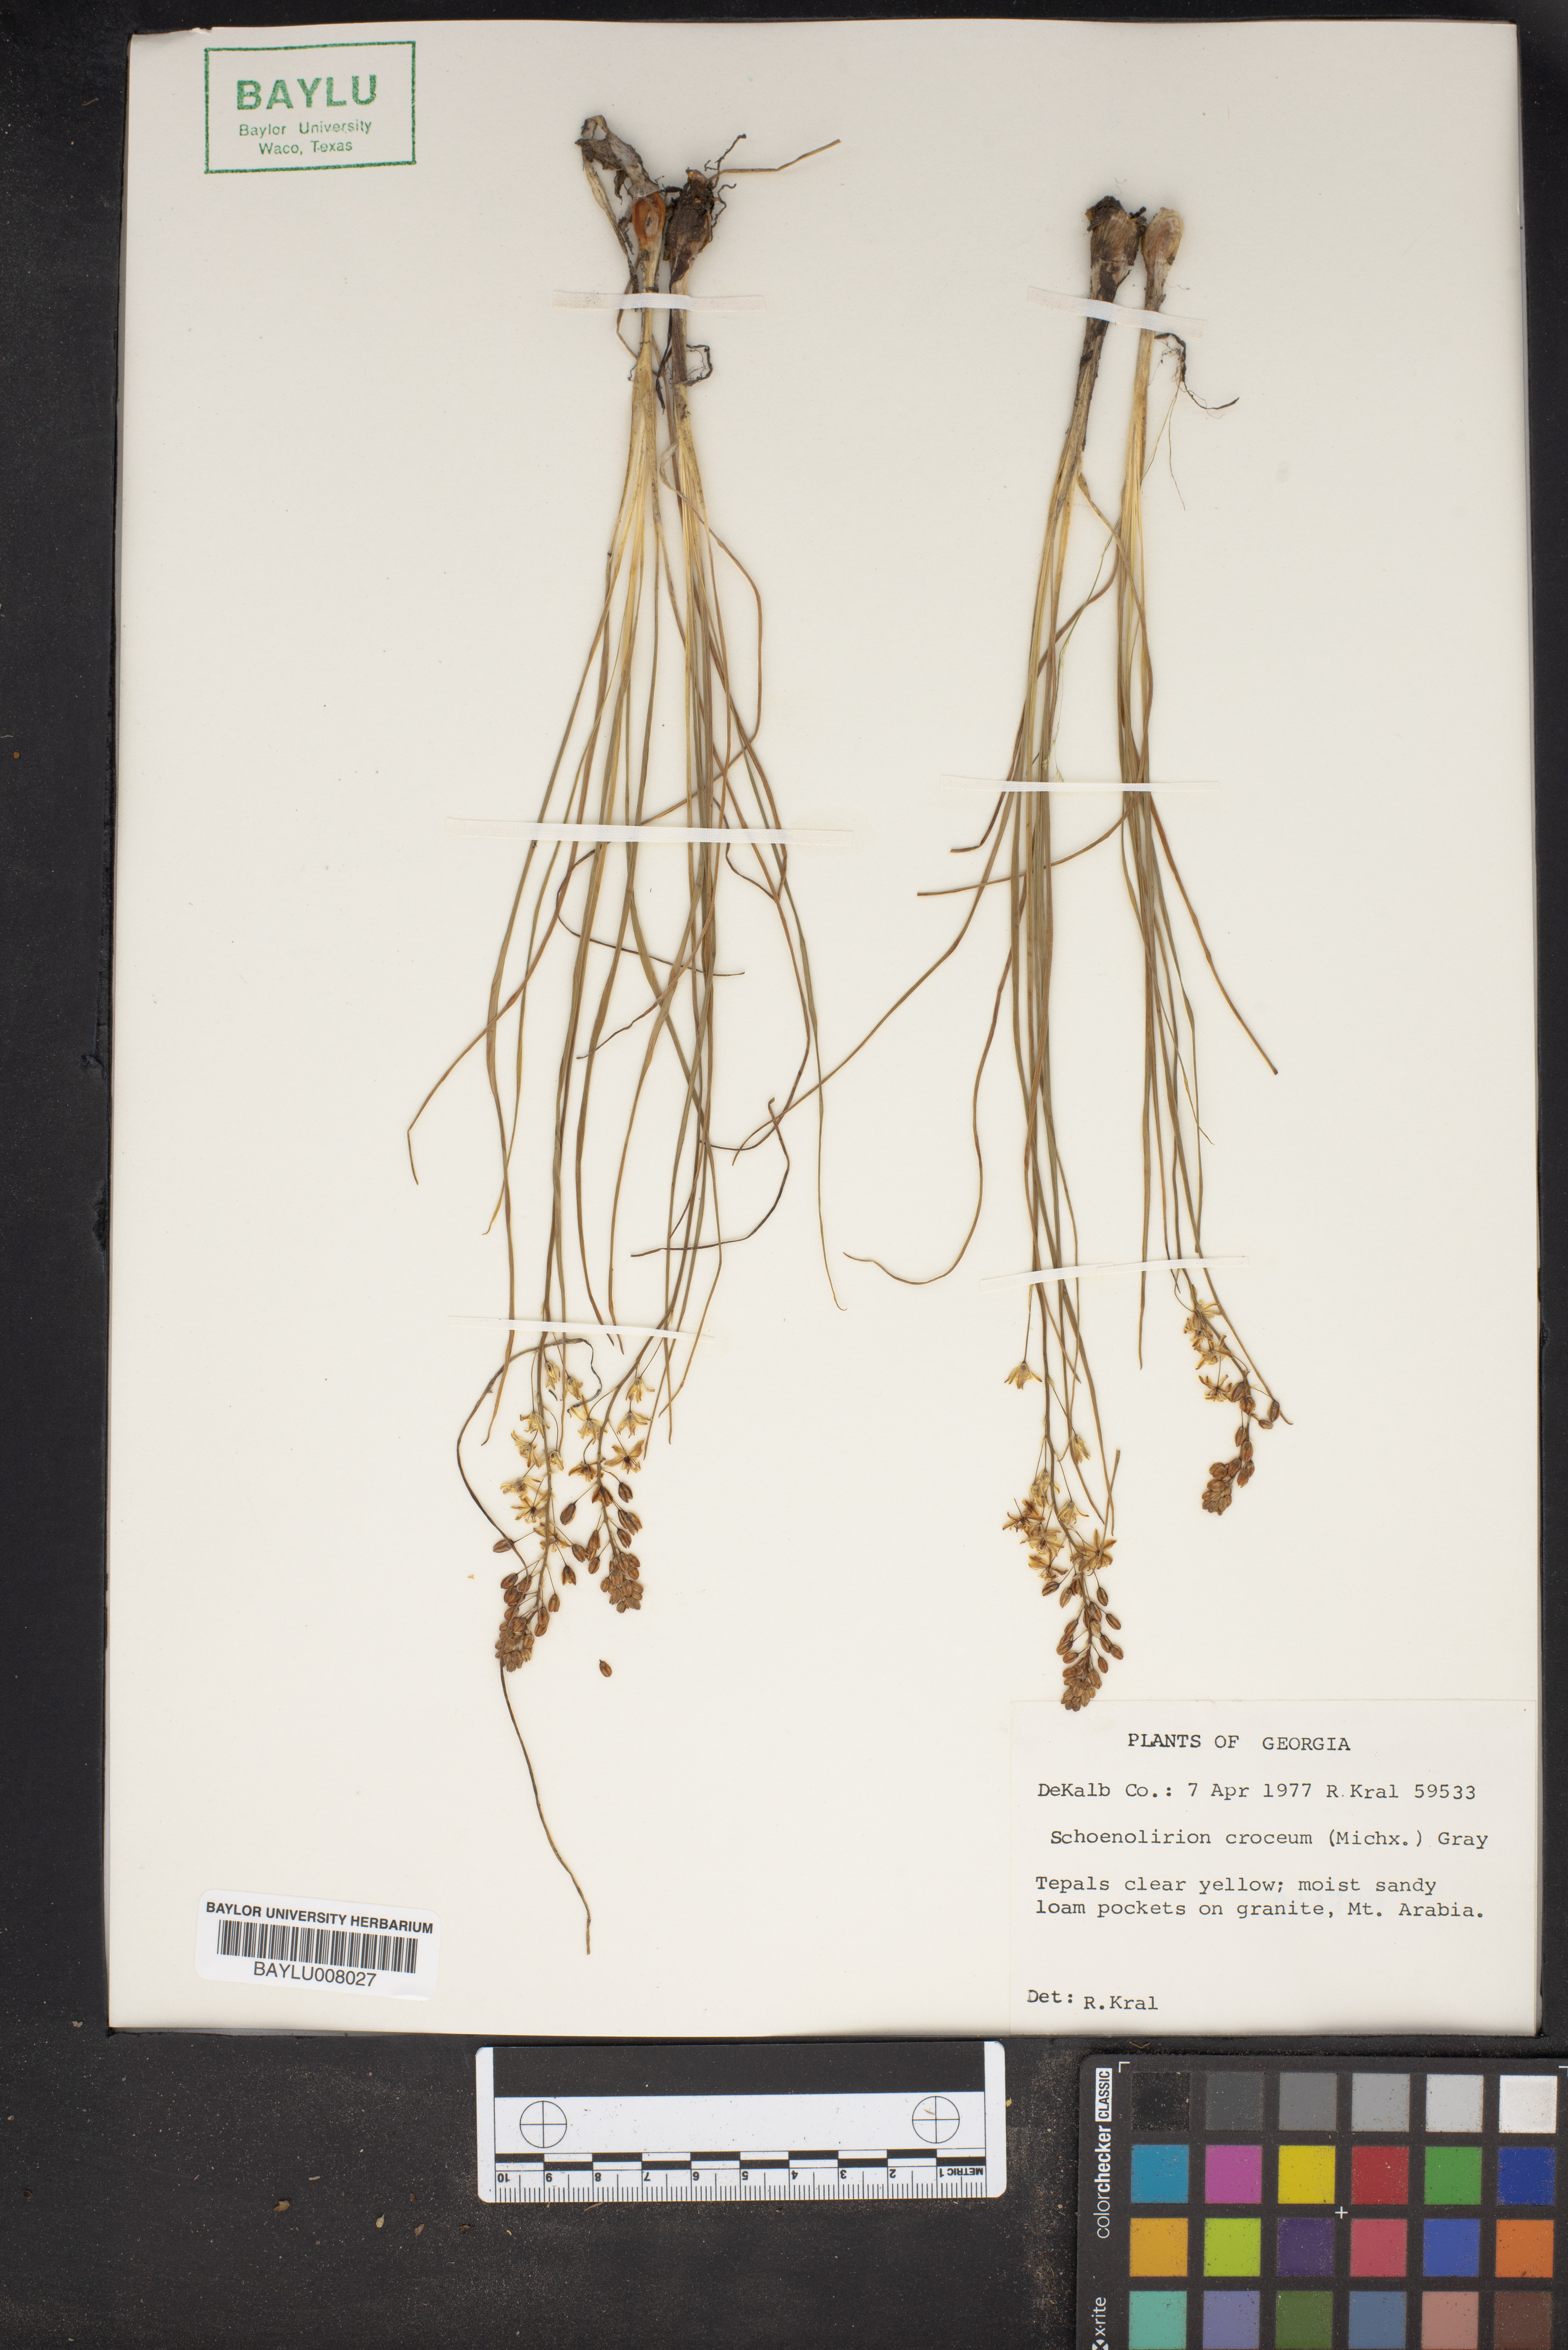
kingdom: Plantae
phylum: Tracheophyta
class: Liliopsida
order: Asparagales
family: Asparagaceae
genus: Schoenolirion
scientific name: Schoenolirion croceum
